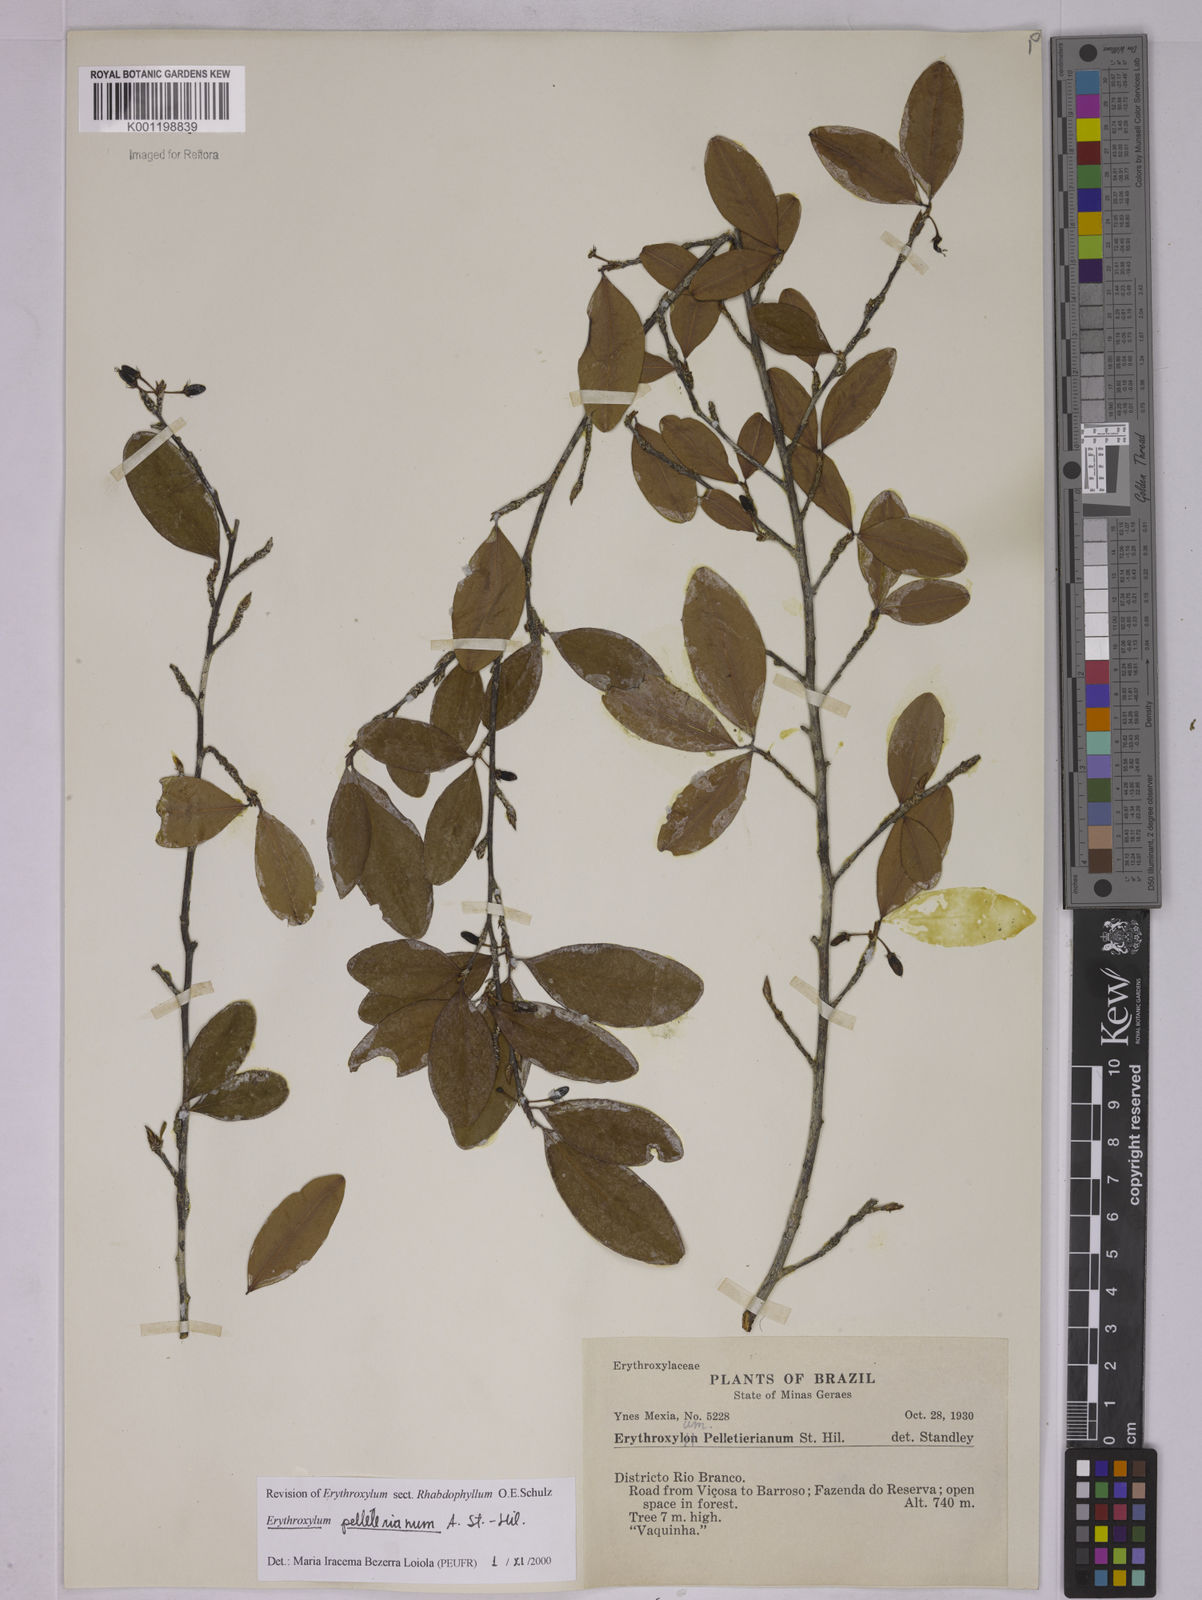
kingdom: Plantae
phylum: Tracheophyta
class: Magnoliopsida
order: Malpighiales
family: Erythroxylaceae
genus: Erythroxylum
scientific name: Erythroxylum pelleterianum
